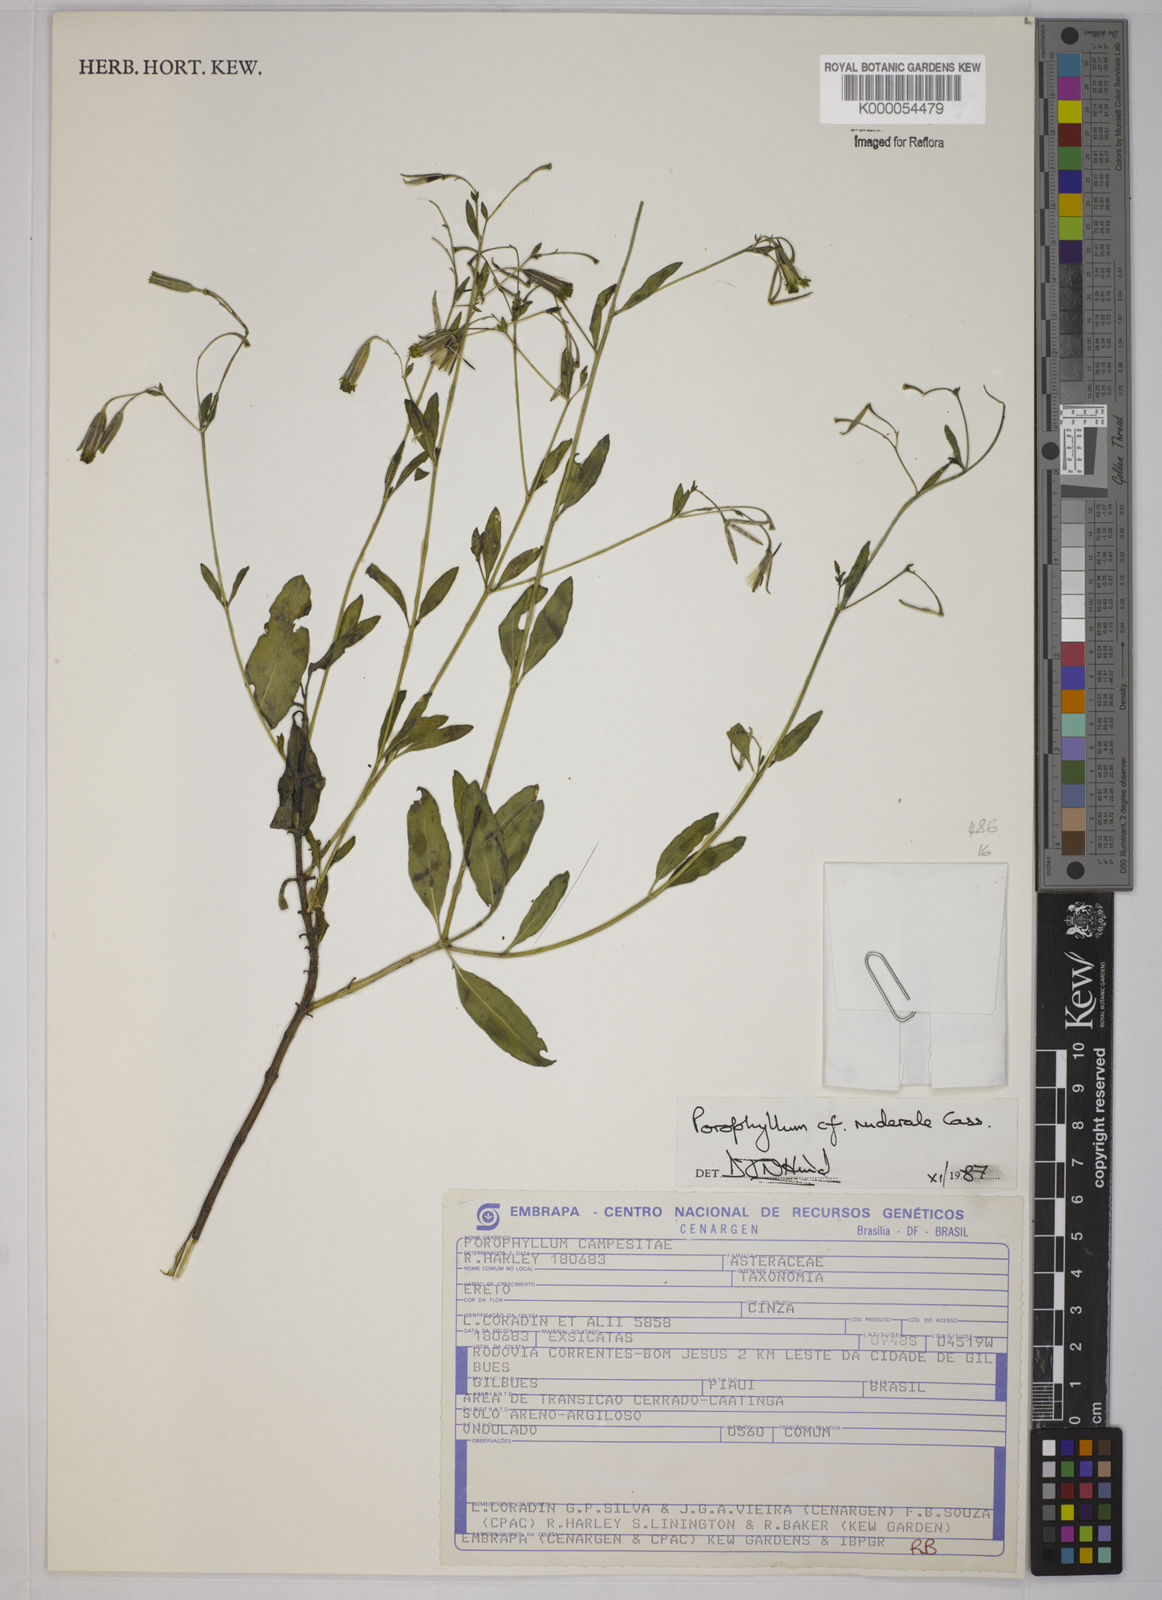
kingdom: Plantae
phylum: Tracheophyta
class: Magnoliopsida
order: Asterales
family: Asteraceae
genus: Porophyllum
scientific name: Porophyllum ruderale
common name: Yerba porosa
